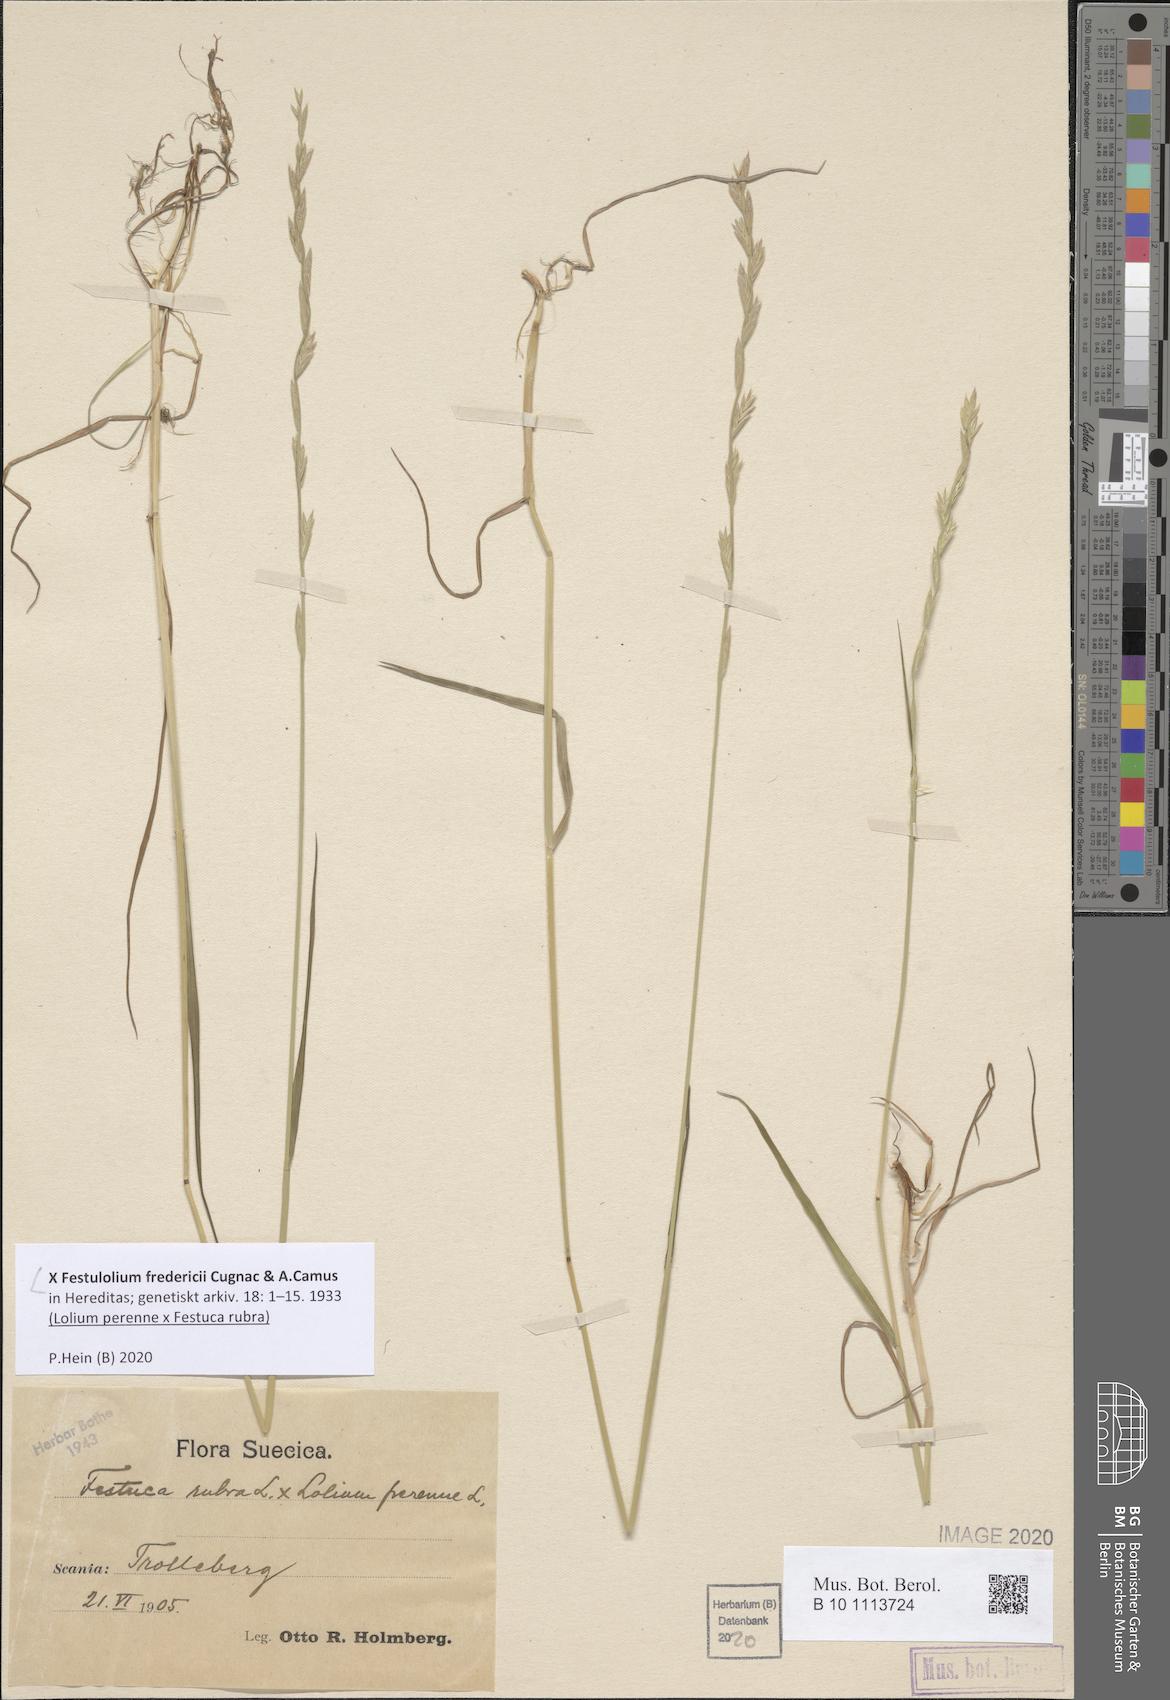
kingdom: Plantae
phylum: Tracheophyta
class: Liliopsida
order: Poales
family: Poaceae
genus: Festulolium
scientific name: Festulolium frederici
